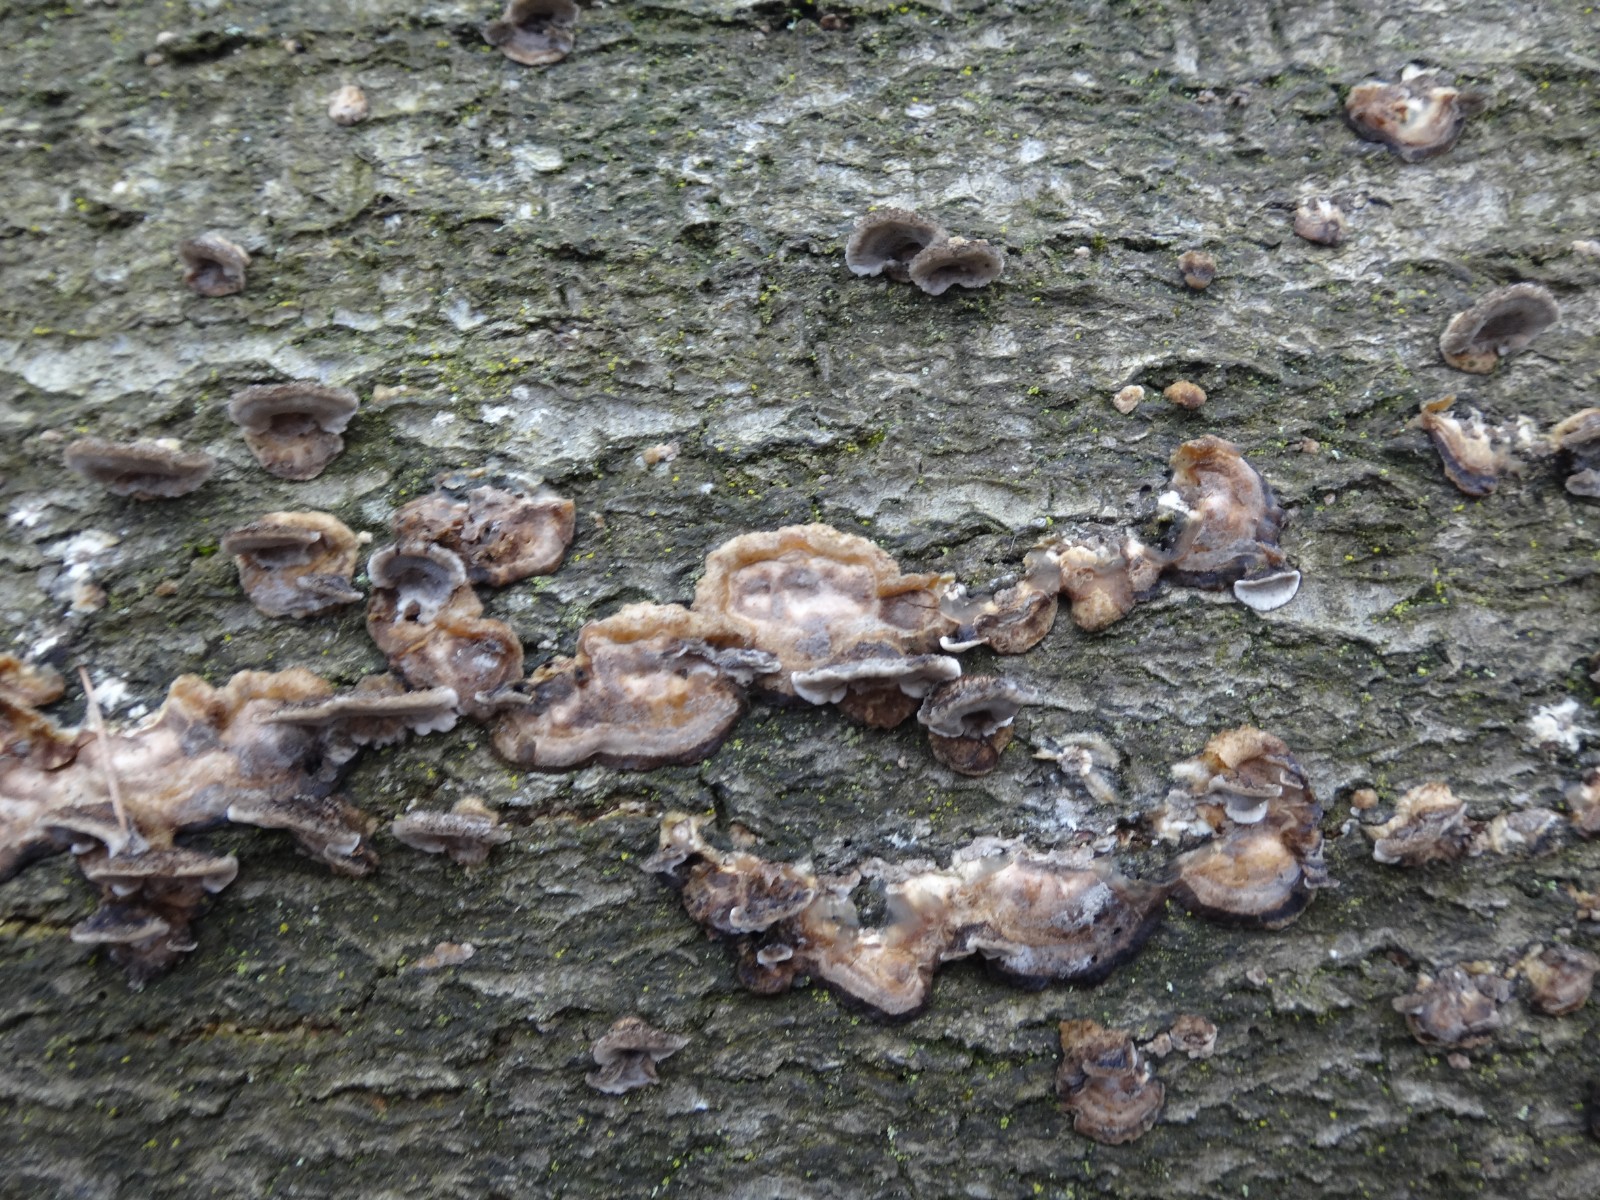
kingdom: Fungi
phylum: Basidiomycota
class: Agaricomycetes
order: Polyporales
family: Phanerochaetaceae
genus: Bjerkandera
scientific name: Bjerkandera adusta
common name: sveden sodporesvamp
